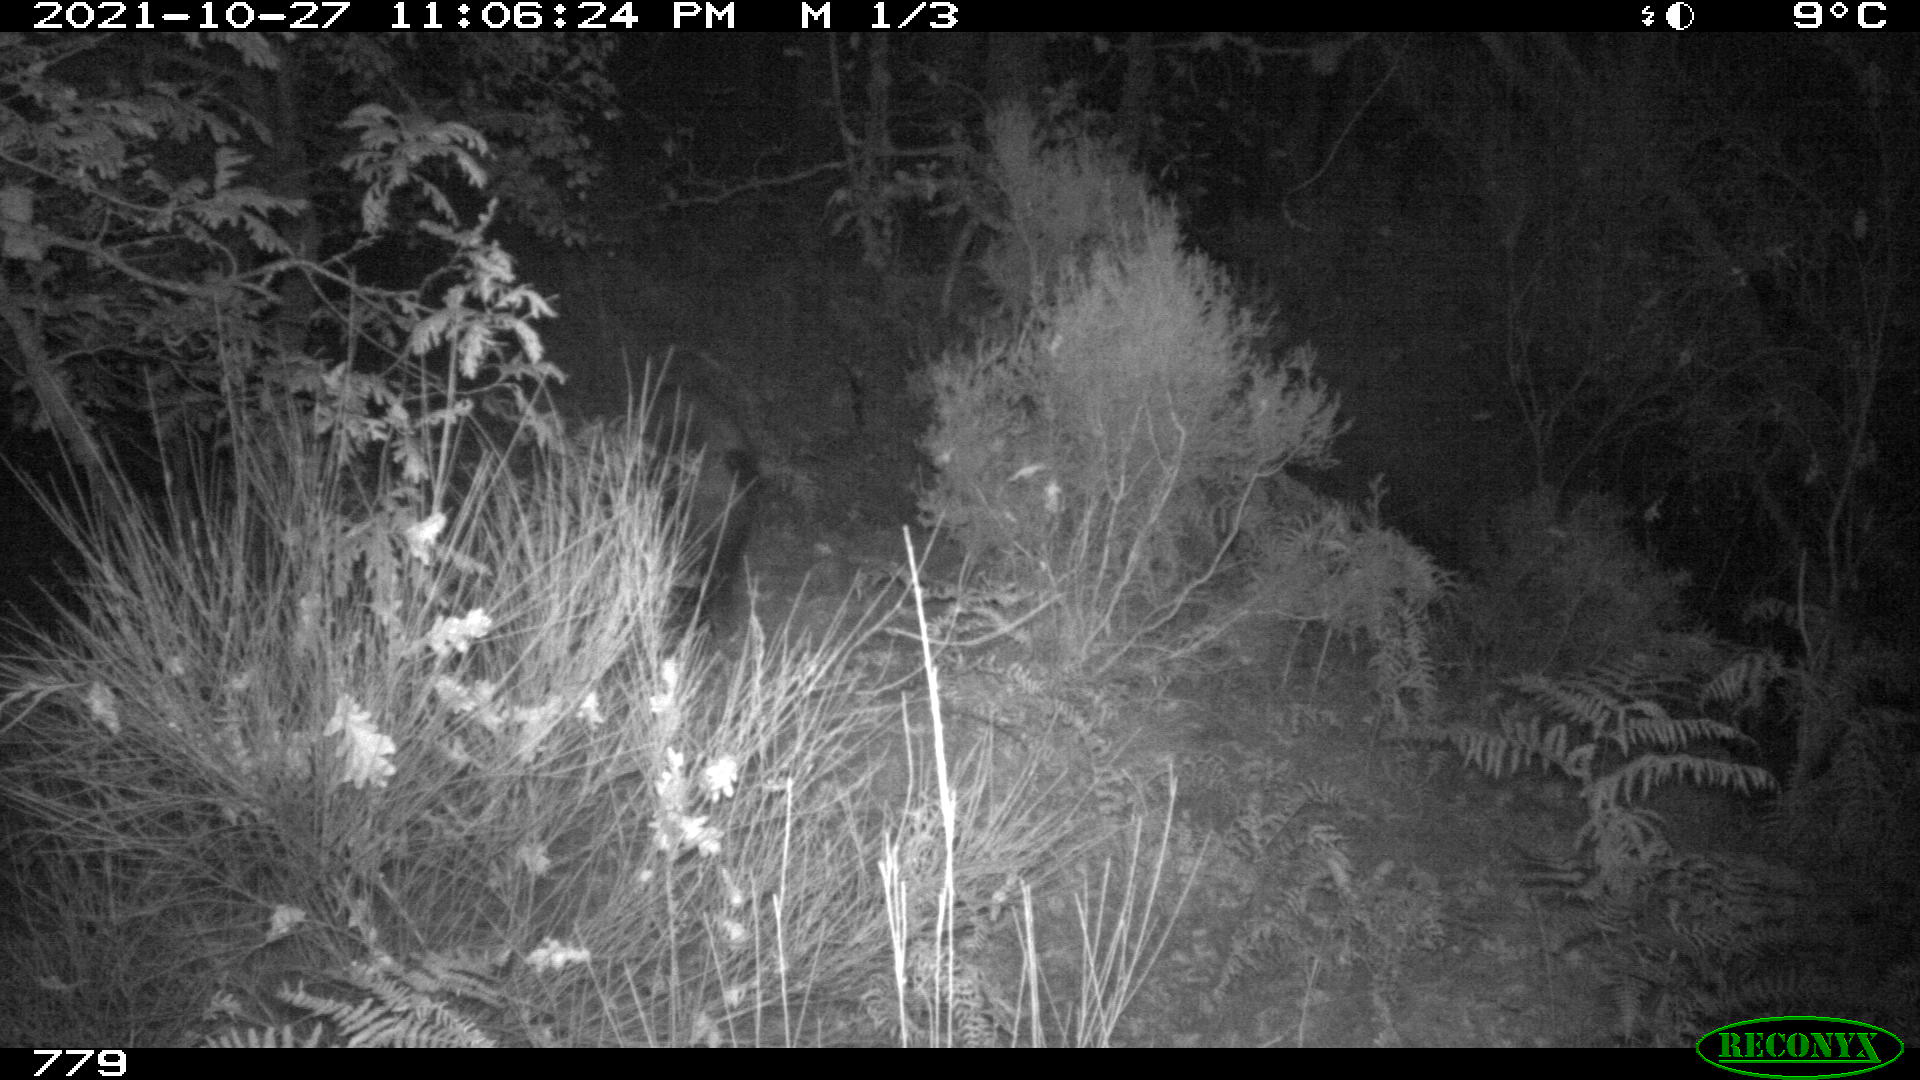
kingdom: Animalia
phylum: Chordata
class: Mammalia
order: Artiodactyla
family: Suidae
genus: Sus
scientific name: Sus scrofa
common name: Wild boar
